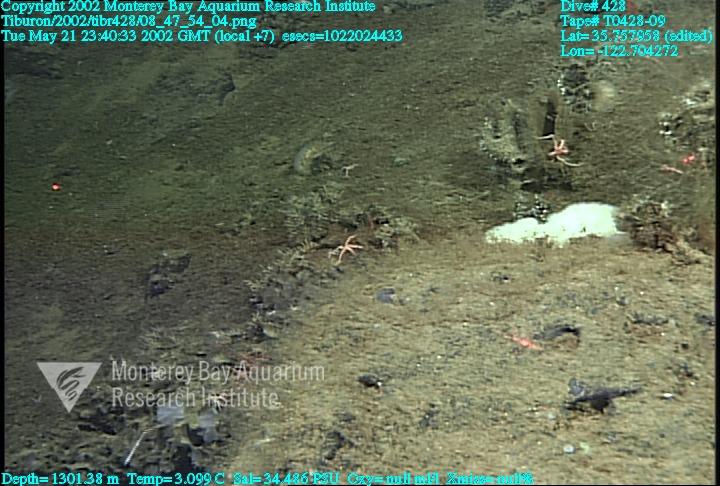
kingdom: Animalia
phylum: Porifera
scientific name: Porifera
